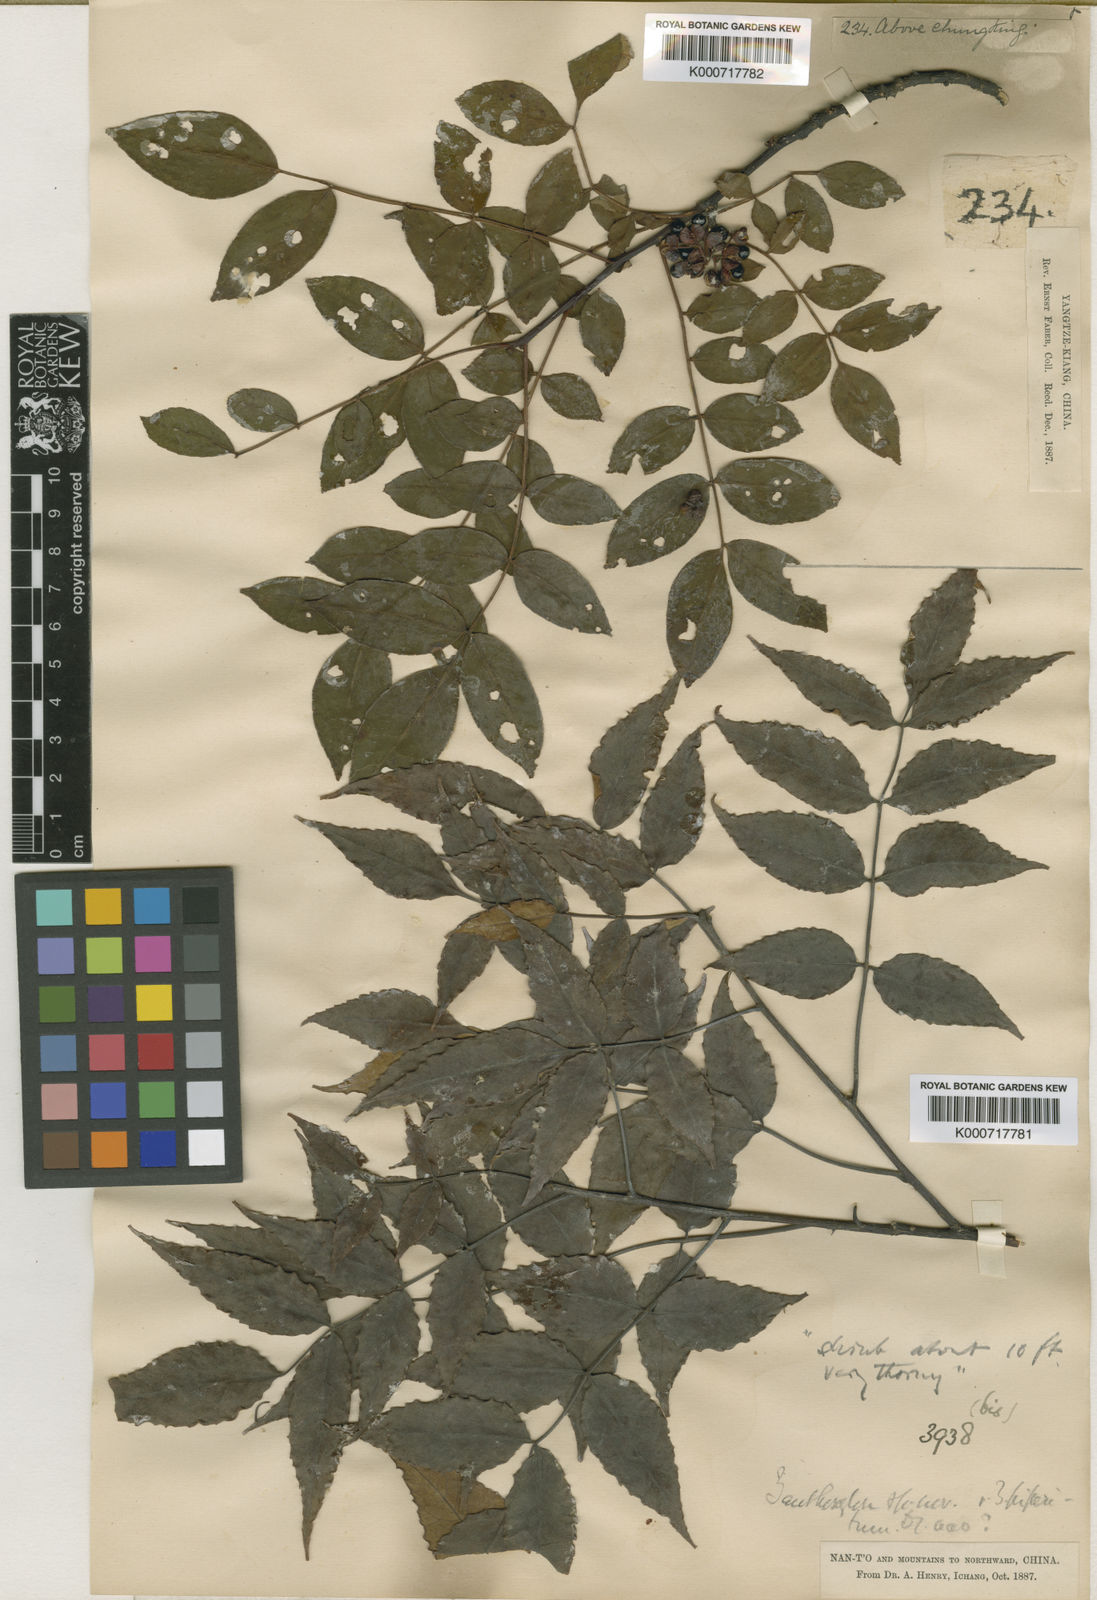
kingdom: Plantae
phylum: Tracheophyta
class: Magnoliopsida
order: Sapindales
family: Rutaceae
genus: Zanthoxylum
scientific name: Zanthoxylum undulatifolium
